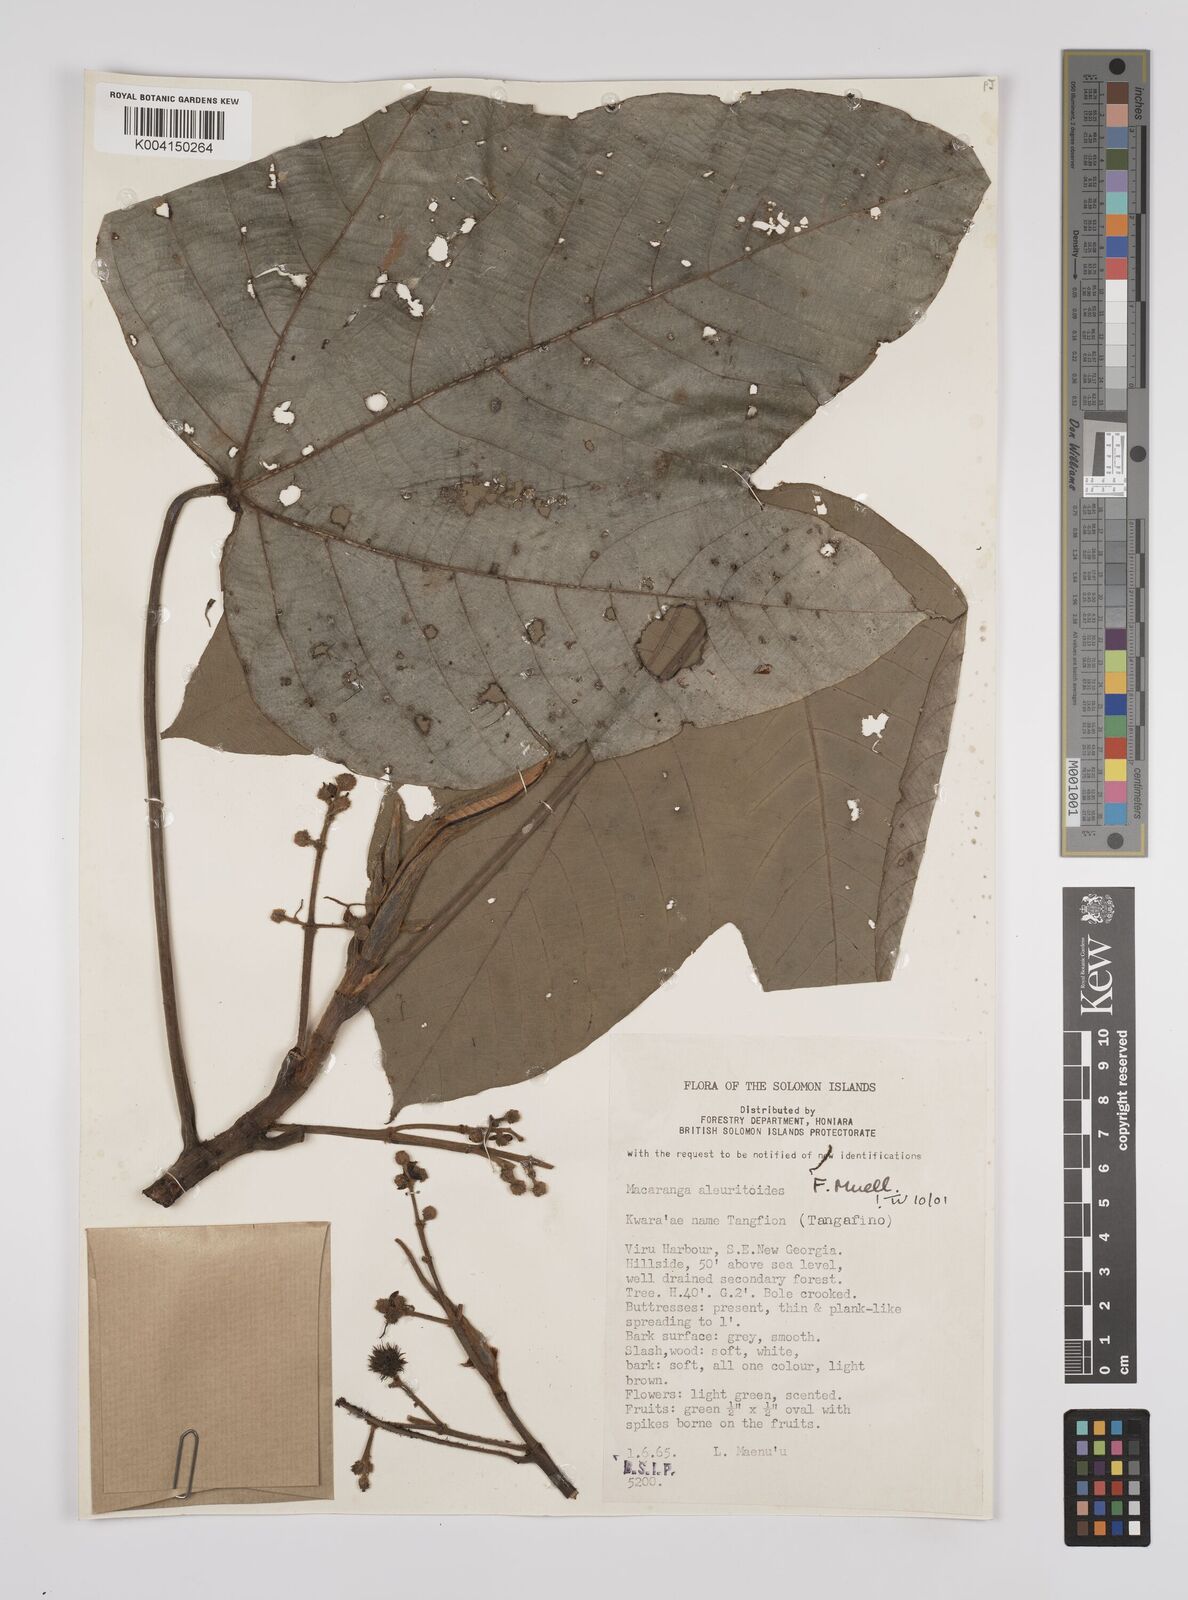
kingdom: Plantae
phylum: Tracheophyta
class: Magnoliopsida
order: Malpighiales
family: Euphorbiaceae
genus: Macaranga
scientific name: Macaranga aleuritoides
